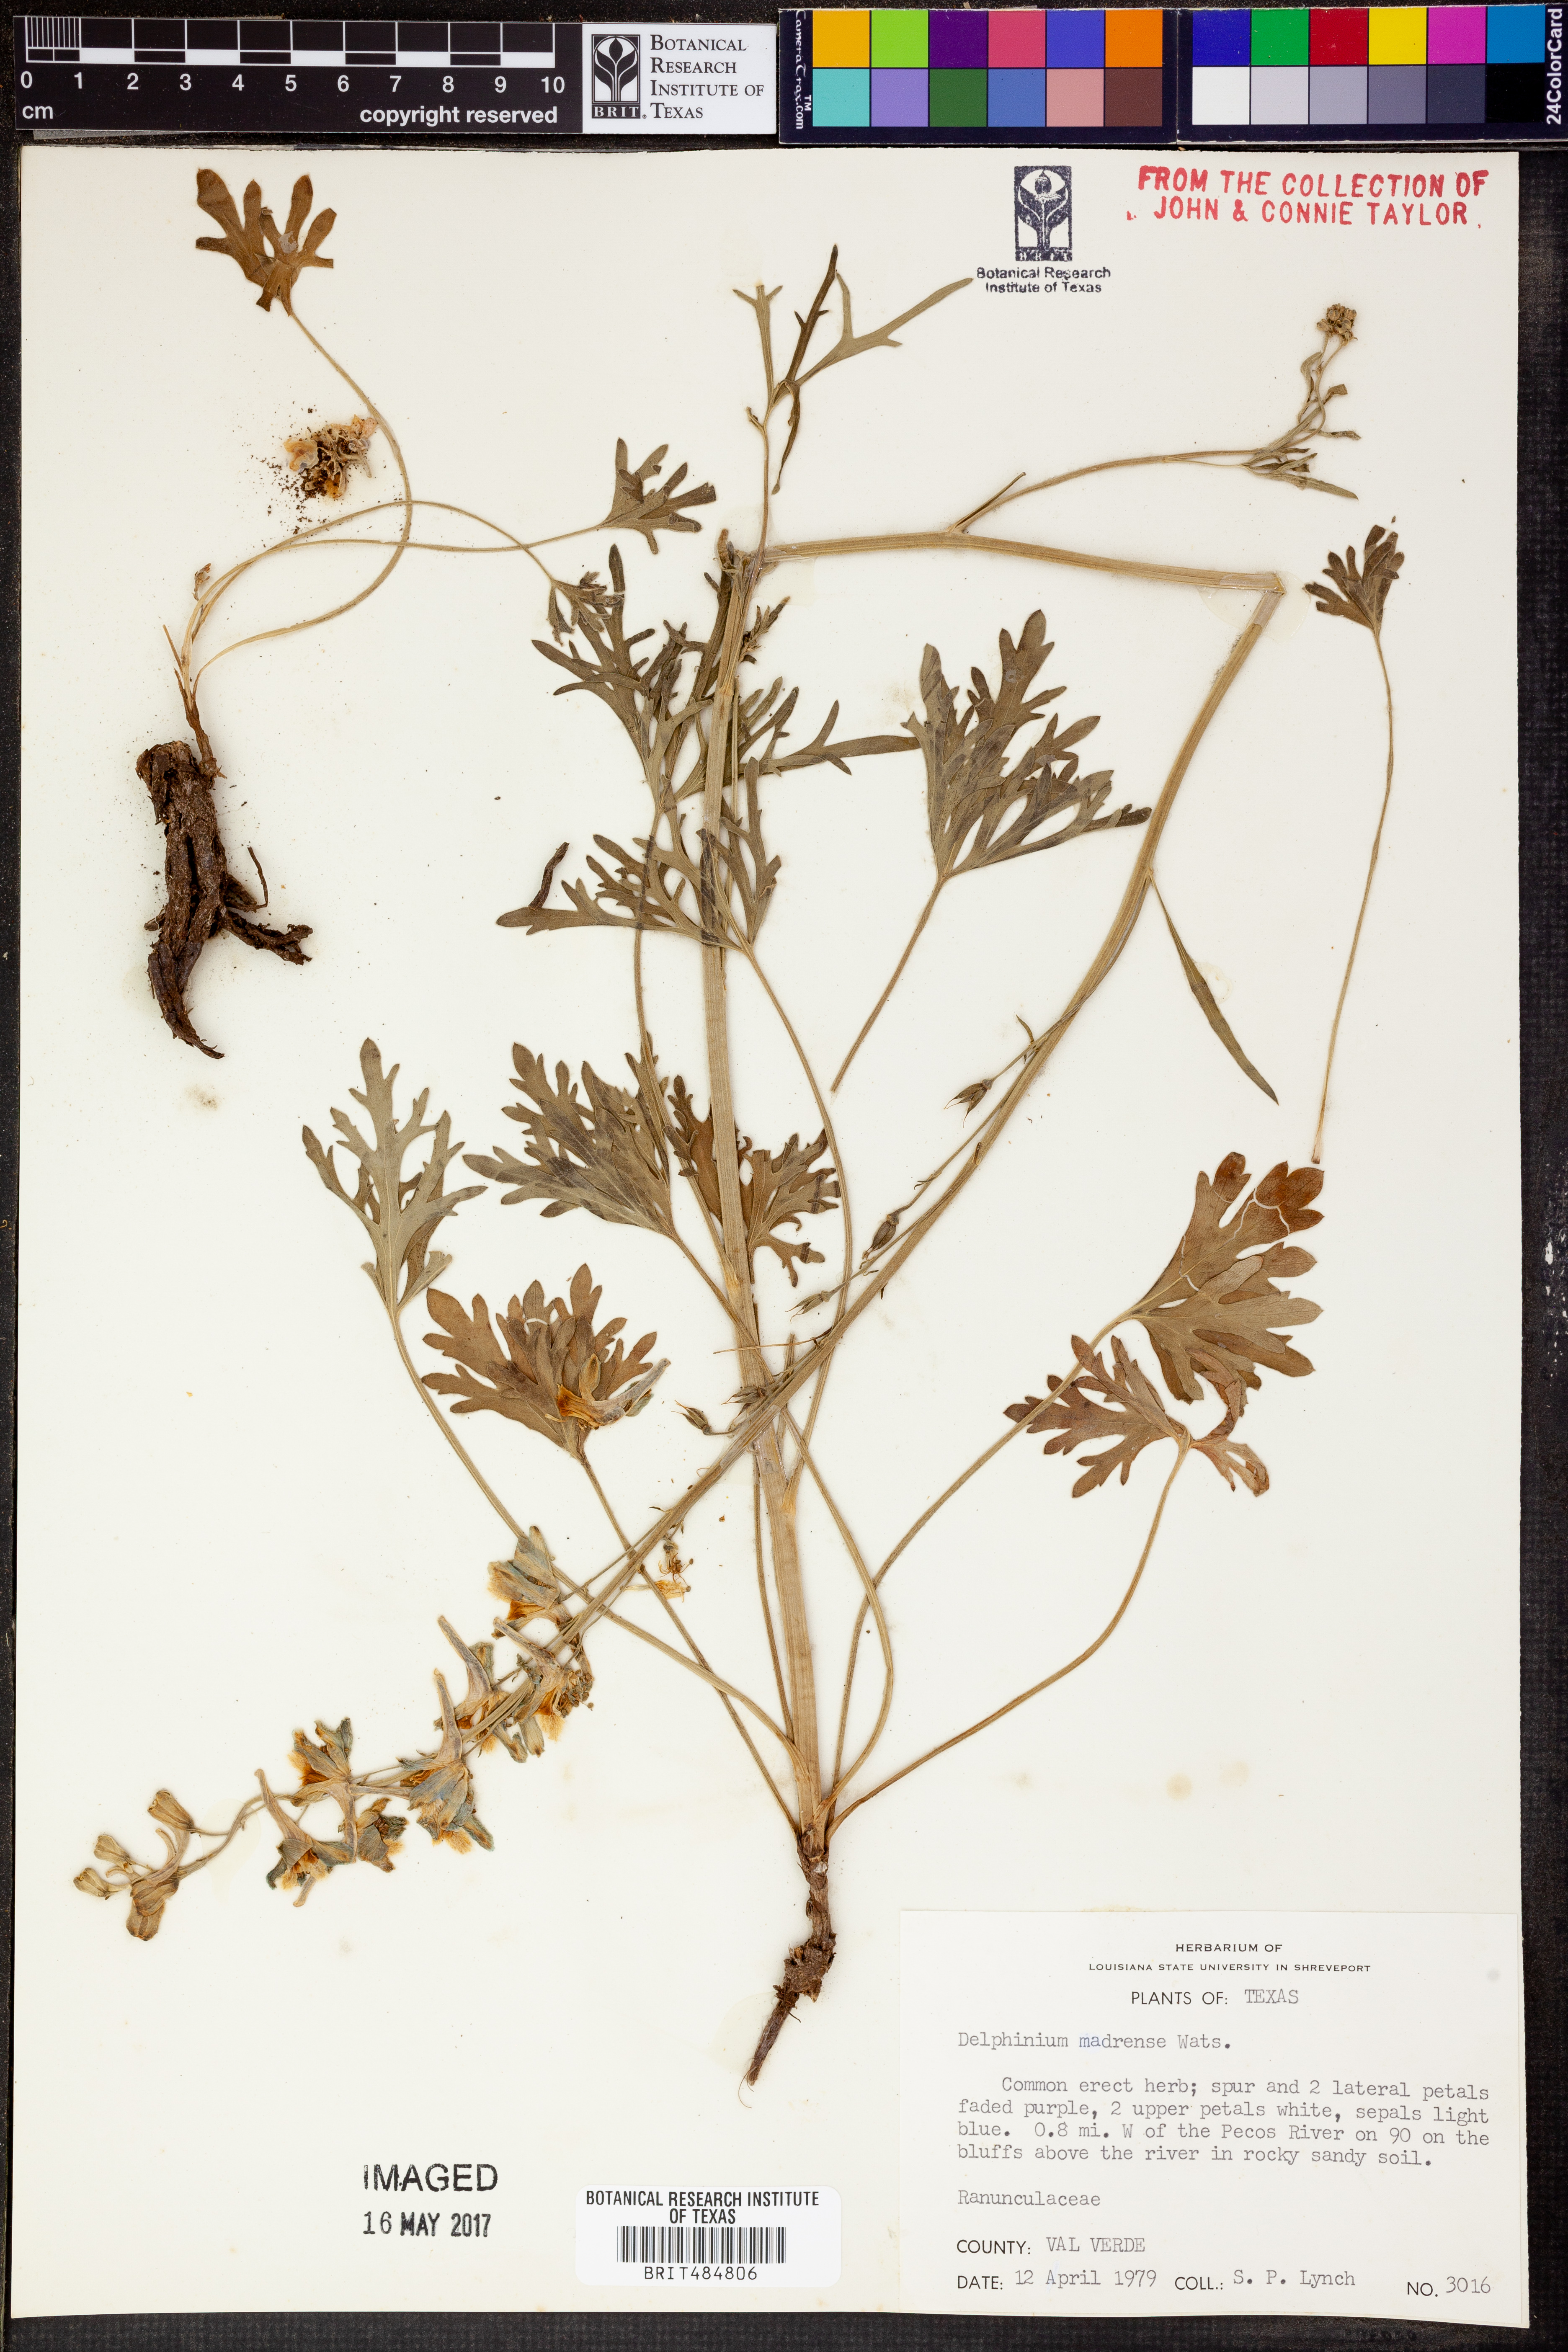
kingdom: Plantae
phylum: Tracheophyta
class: Magnoliopsida
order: Ranunculales
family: Ranunculaceae
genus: Delphinium
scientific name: Delphinium madrense
